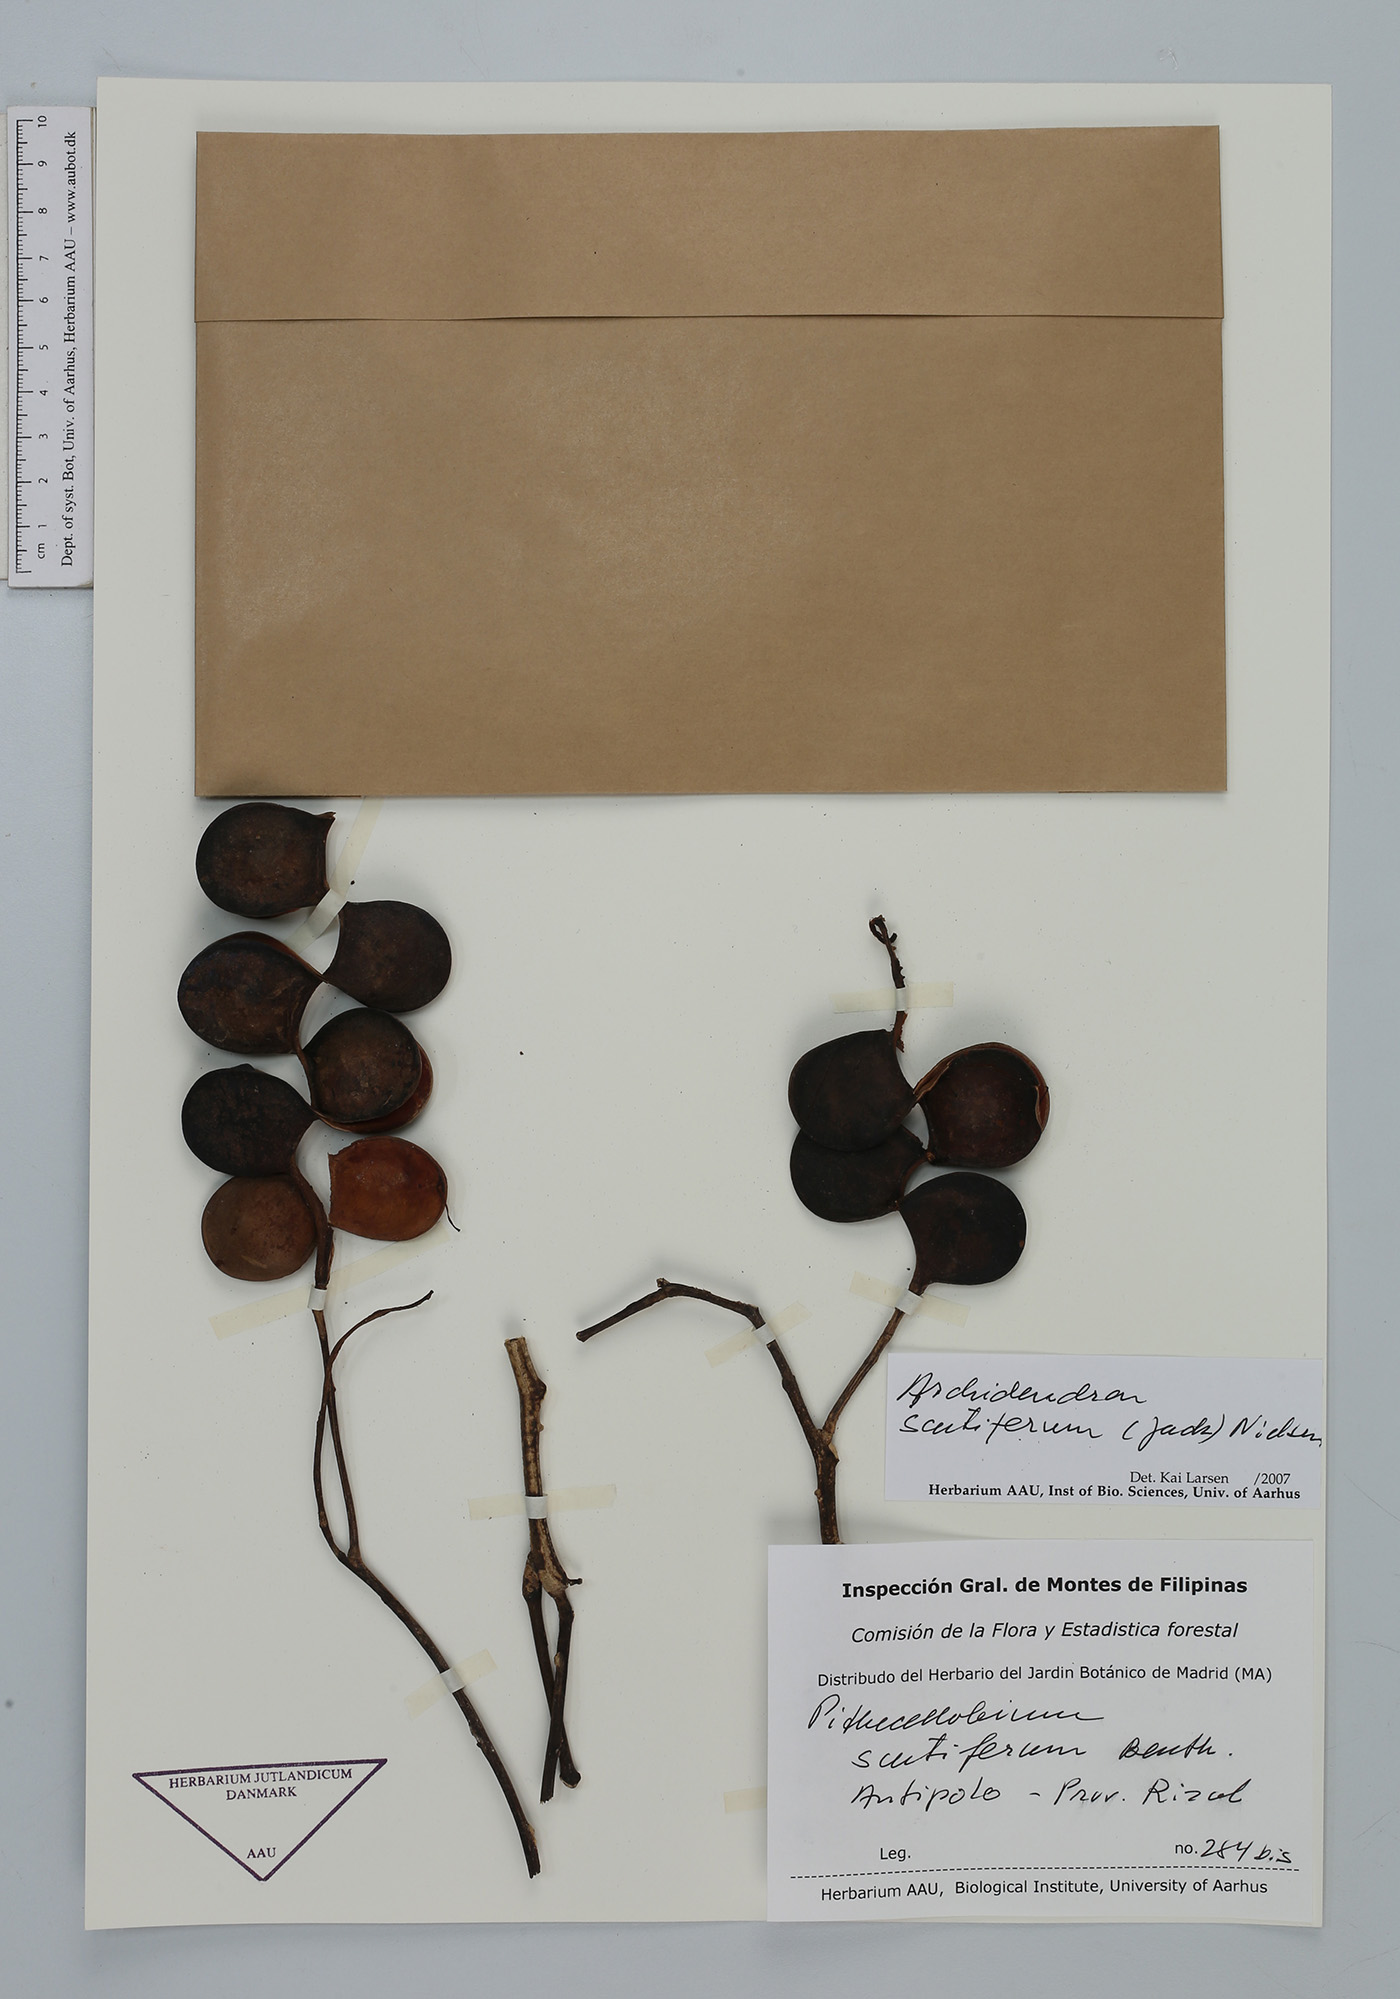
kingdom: Plantae
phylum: Tracheophyta
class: Magnoliopsida
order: Fabales
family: Fabaceae
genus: Archidendron
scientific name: Archidendron scutiferum
